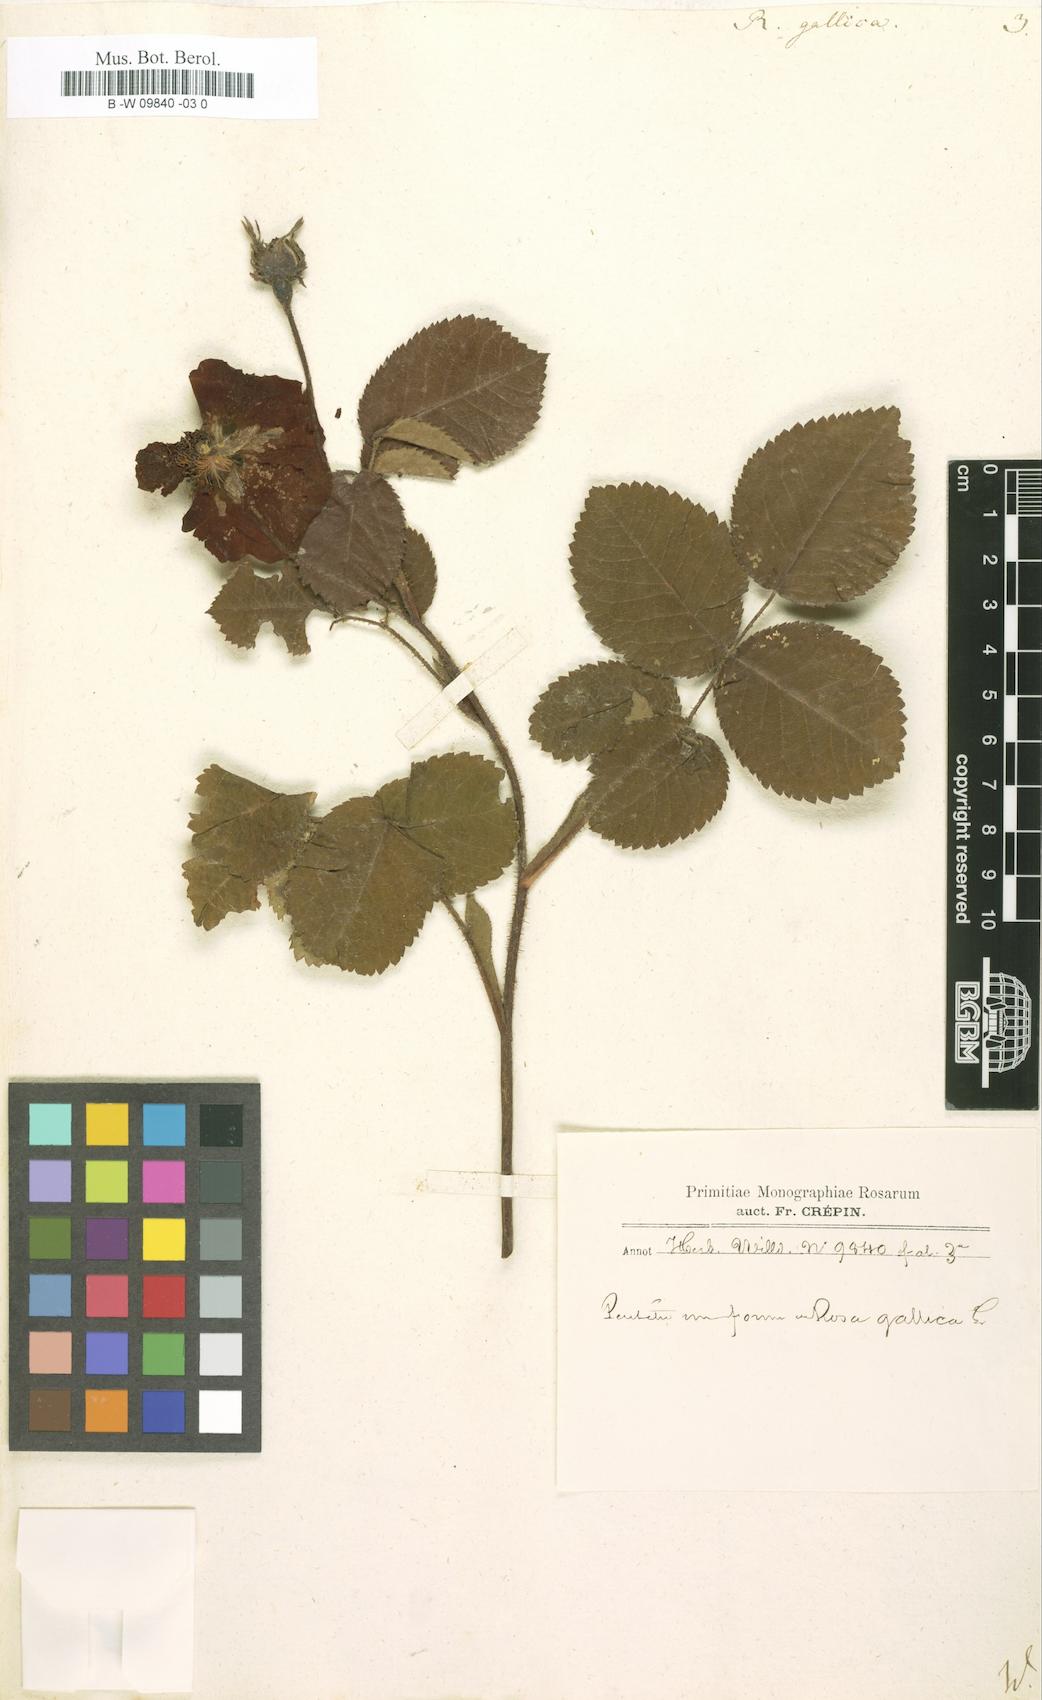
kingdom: Plantae
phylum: Tracheophyta
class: Magnoliopsida
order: Rosales
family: Rosaceae
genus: Rosa
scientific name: Rosa gallica
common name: French rose
